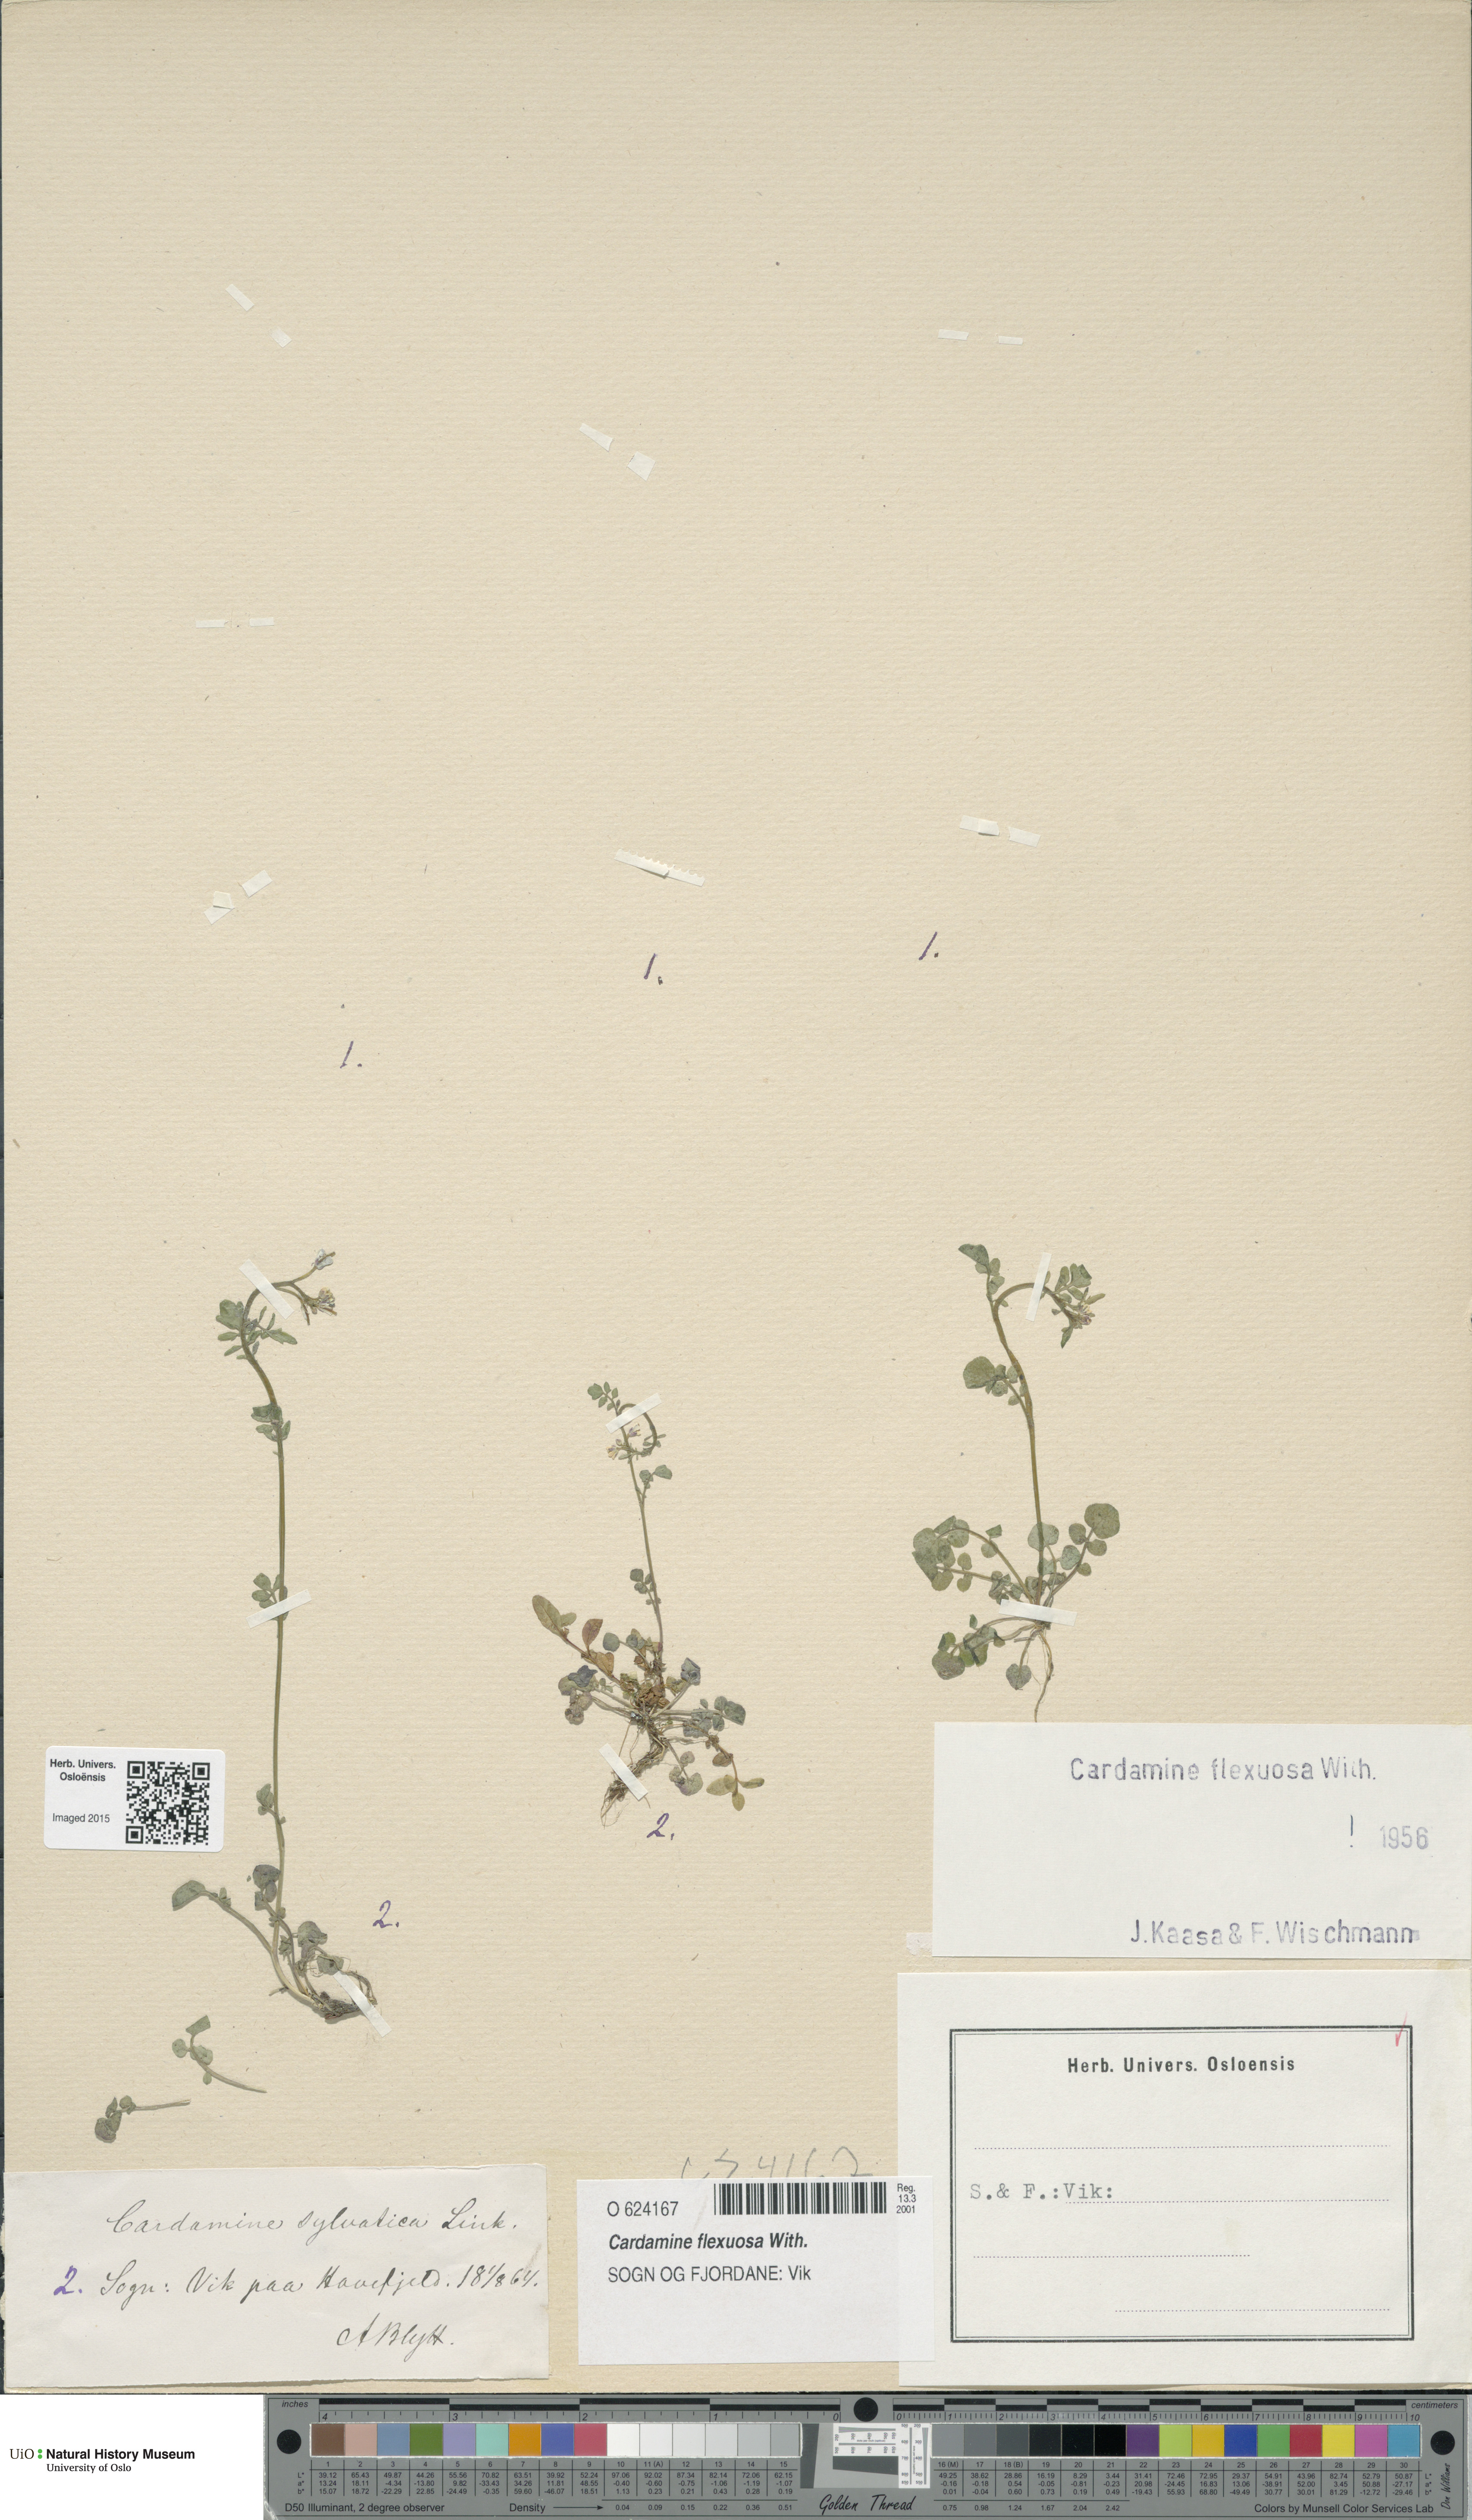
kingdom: Plantae
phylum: Tracheophyta
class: Magnoliopsida
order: Brassicales
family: Brassicaceae
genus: Cardamine
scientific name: Cardamine flexuosa
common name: Woodland bittercress
